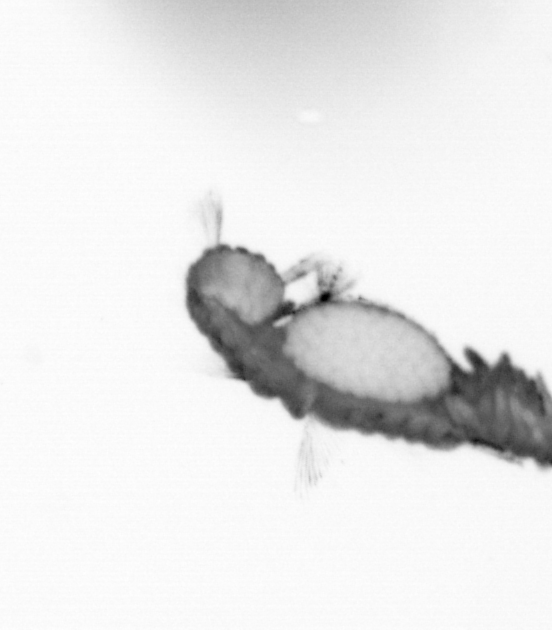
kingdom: Animalia
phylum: Annelida
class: Polychaeta
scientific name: Polychaeta
